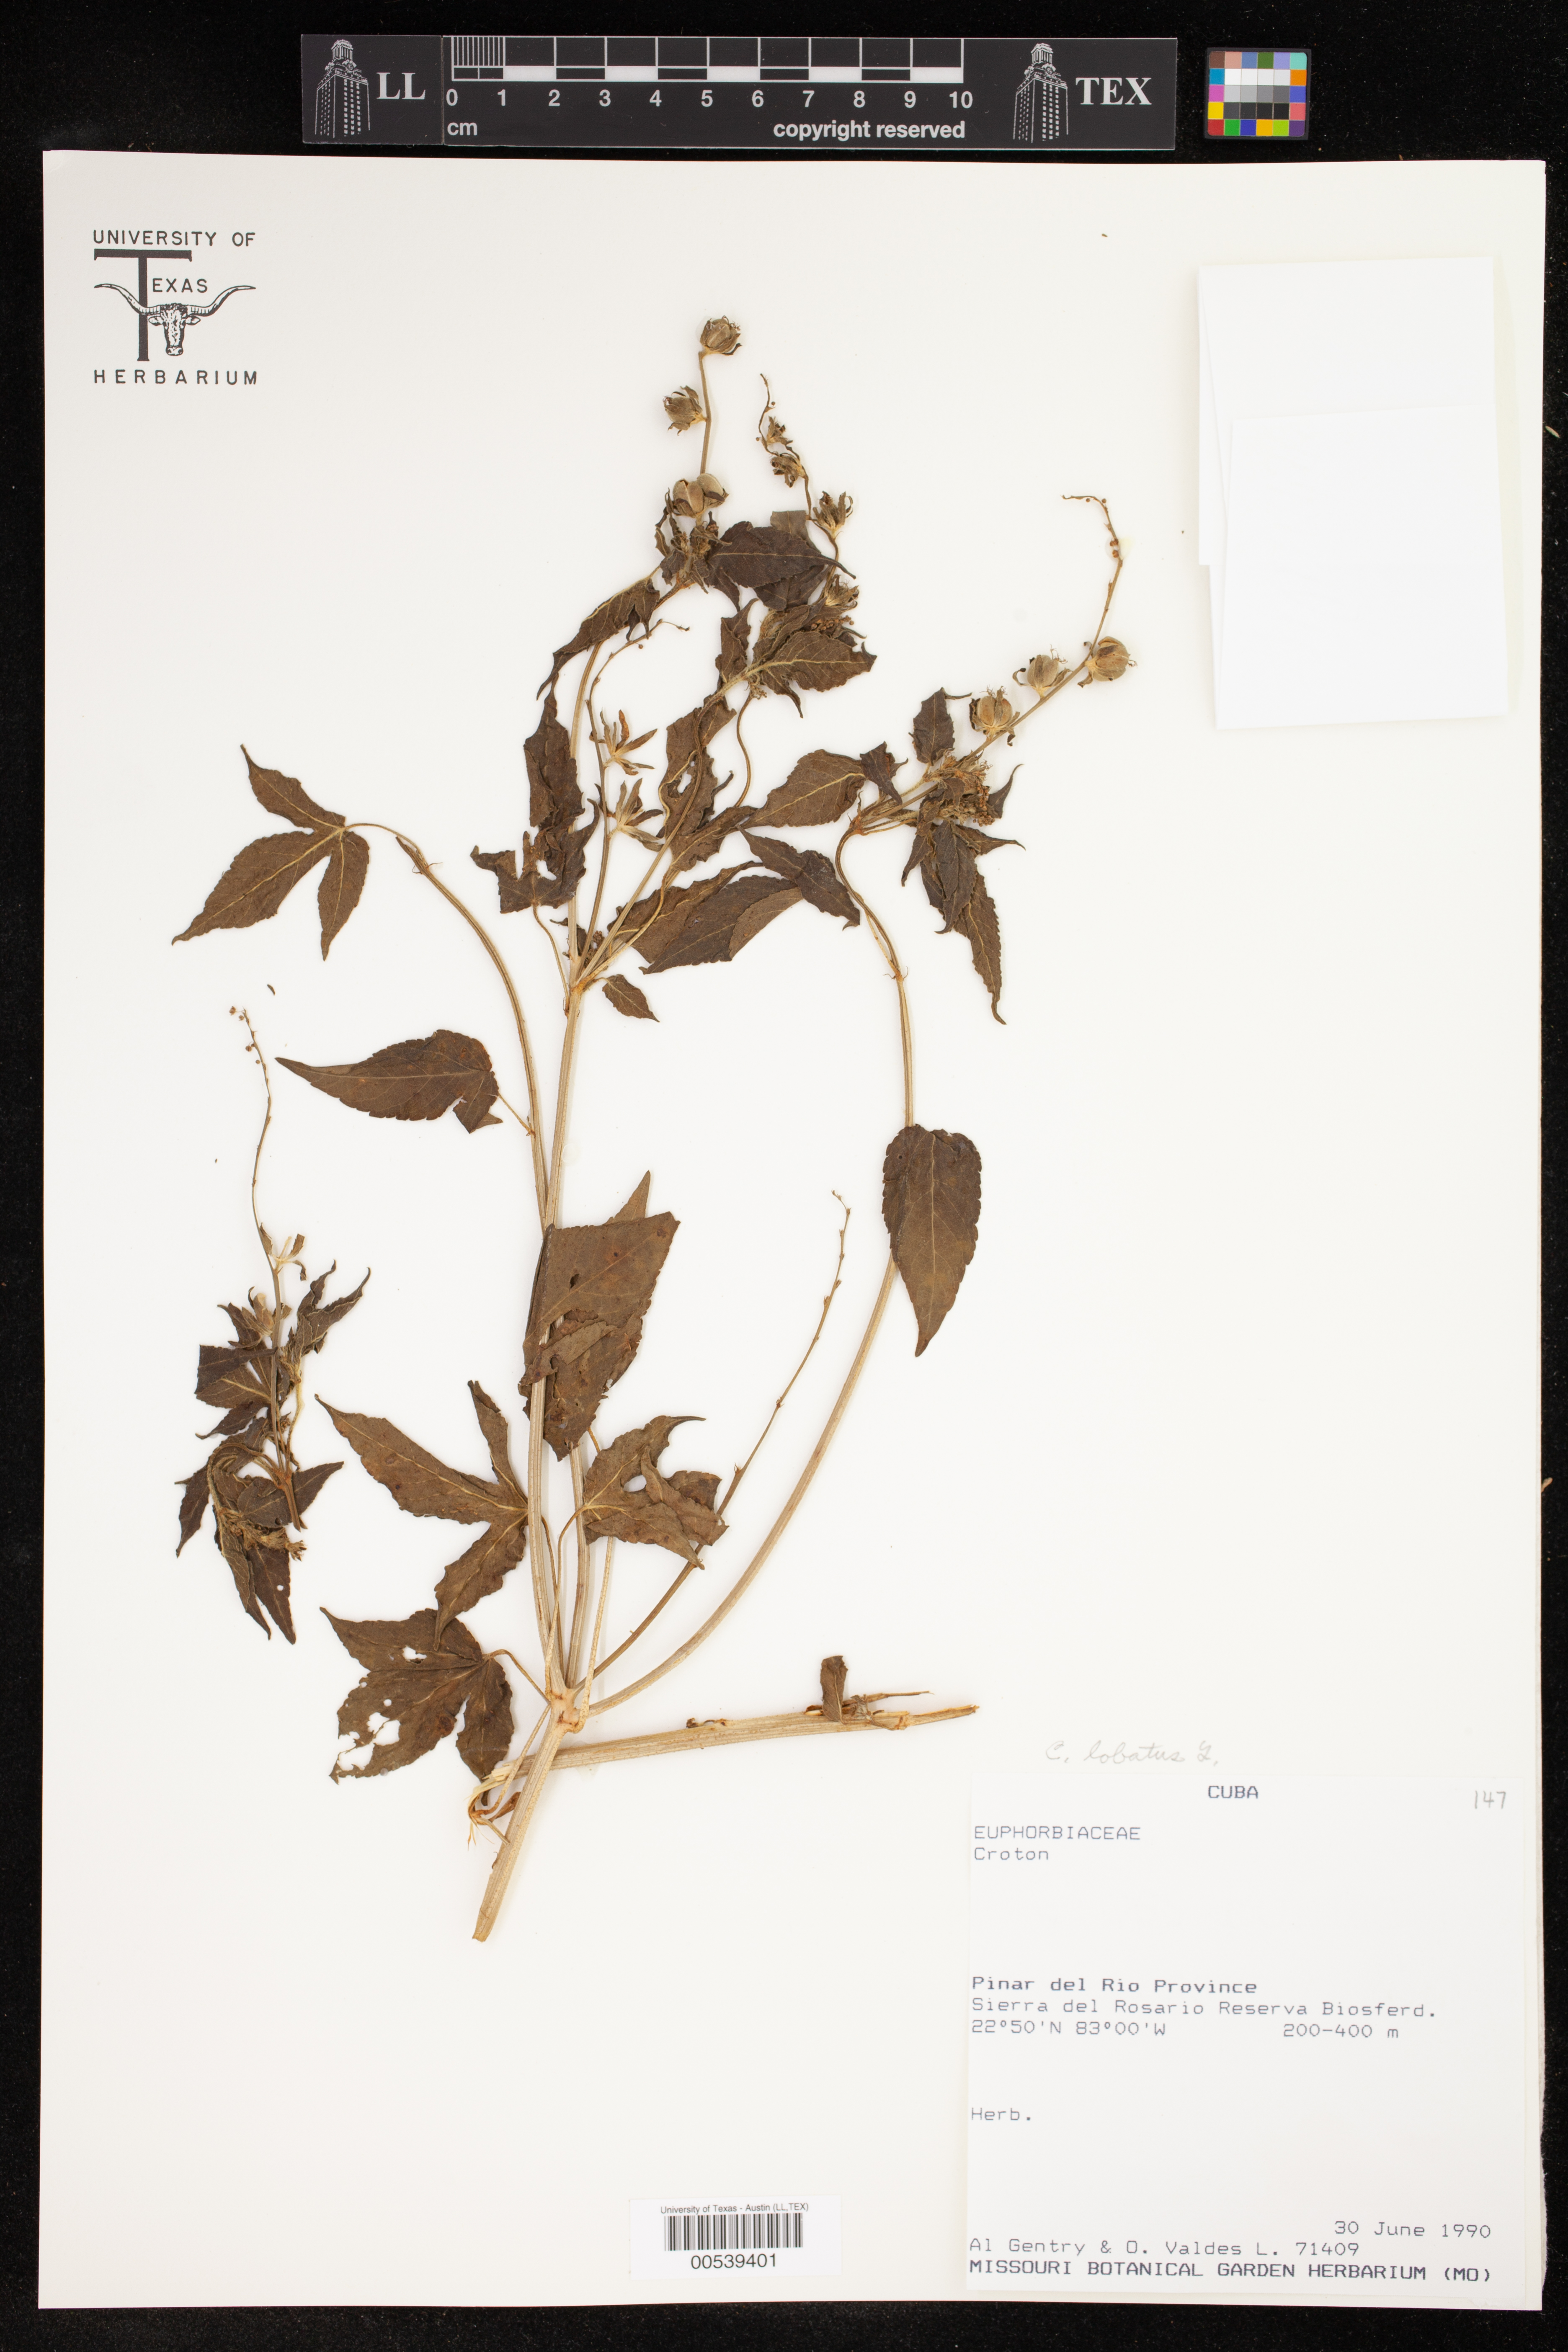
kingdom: Plantae
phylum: Tracheophyta
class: Magnoliopsida
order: Malpighiales
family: Euphorbiaceae
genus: Croton
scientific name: Croton lobatus
